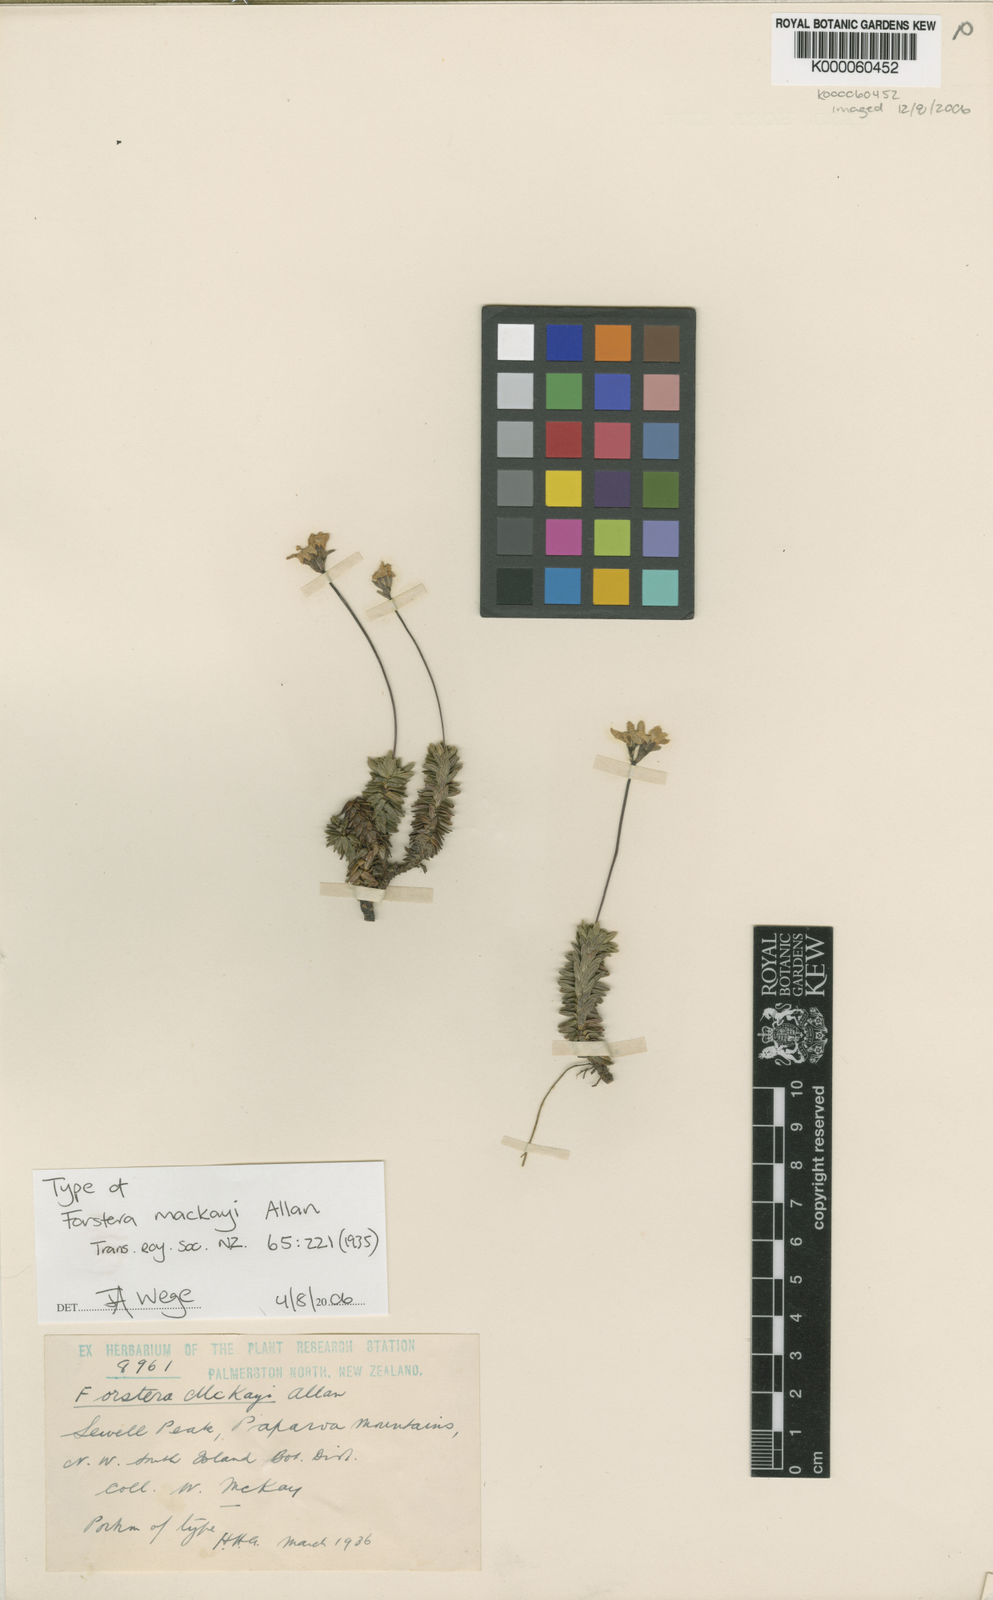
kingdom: Plantae
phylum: Tracheophyta
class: Magnoliopsida
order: Asterales
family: Stylidiaceae
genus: Forstera
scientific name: Forstera mackayi
